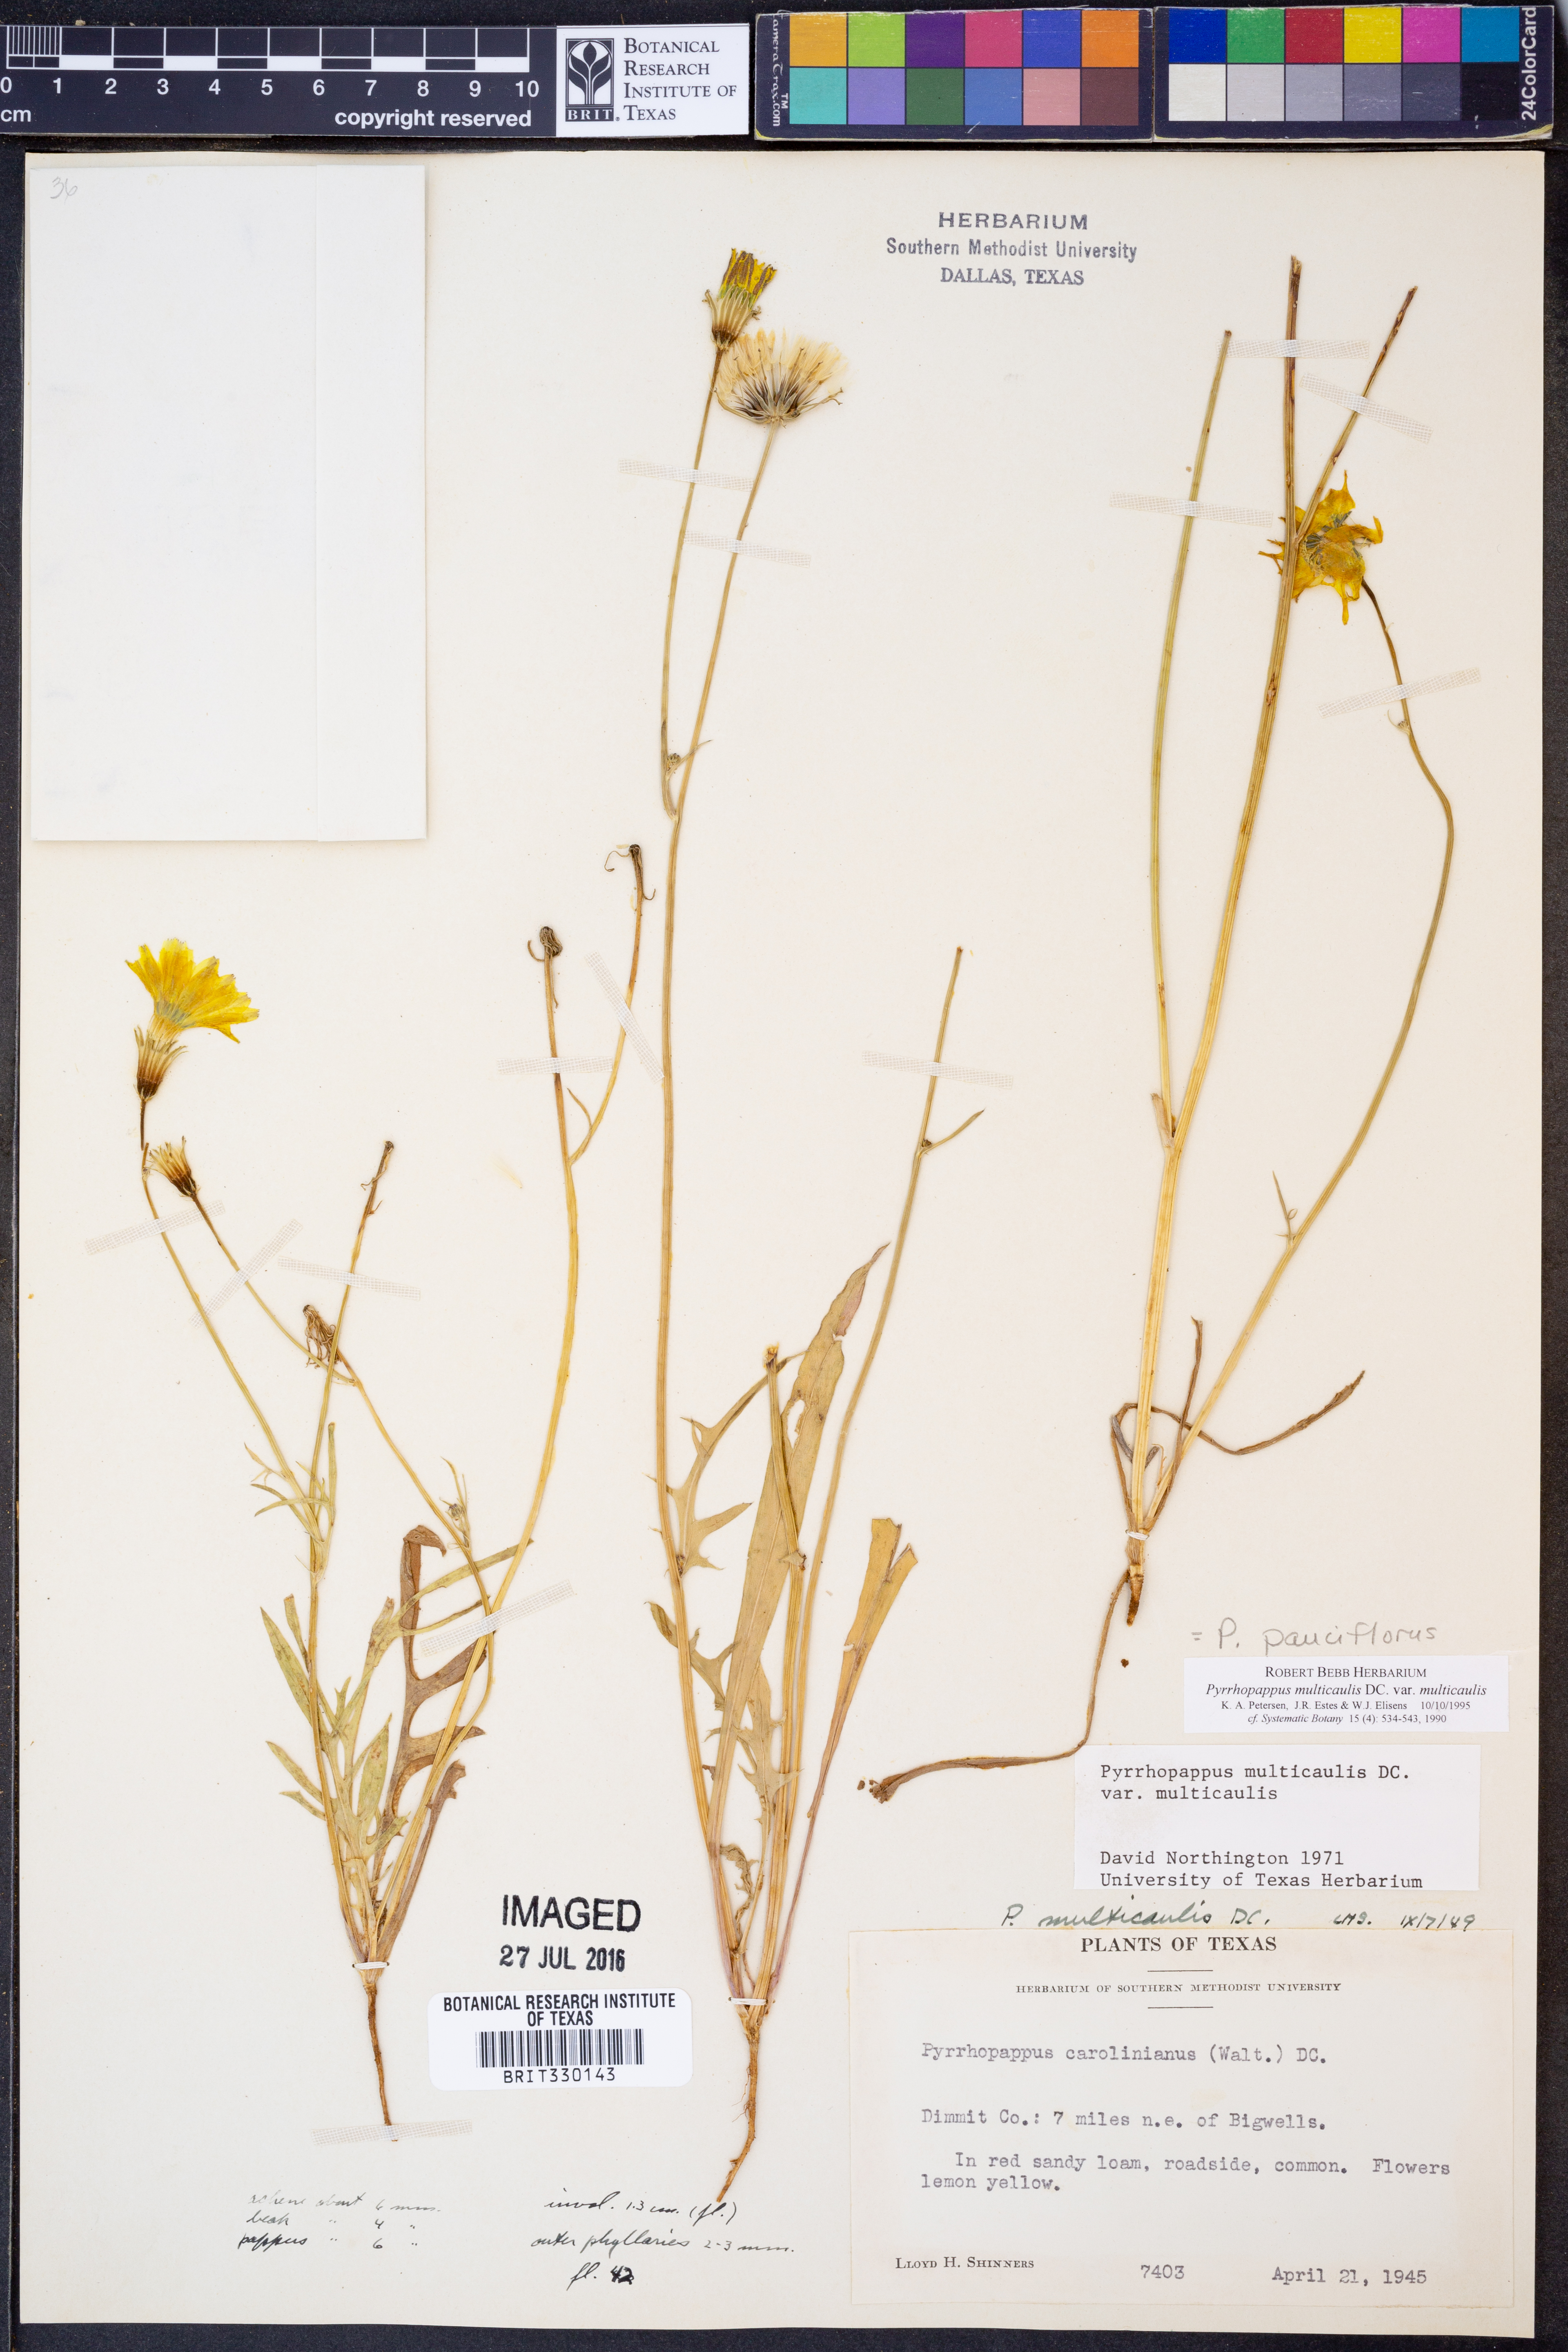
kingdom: Plantae
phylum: Tracheophyta
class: Magnoliopsida
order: Asterales
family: Asteraceae
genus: Pyrrhopappus
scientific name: Pyrrhopappus pauciflorus
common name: Texas false dandelion
